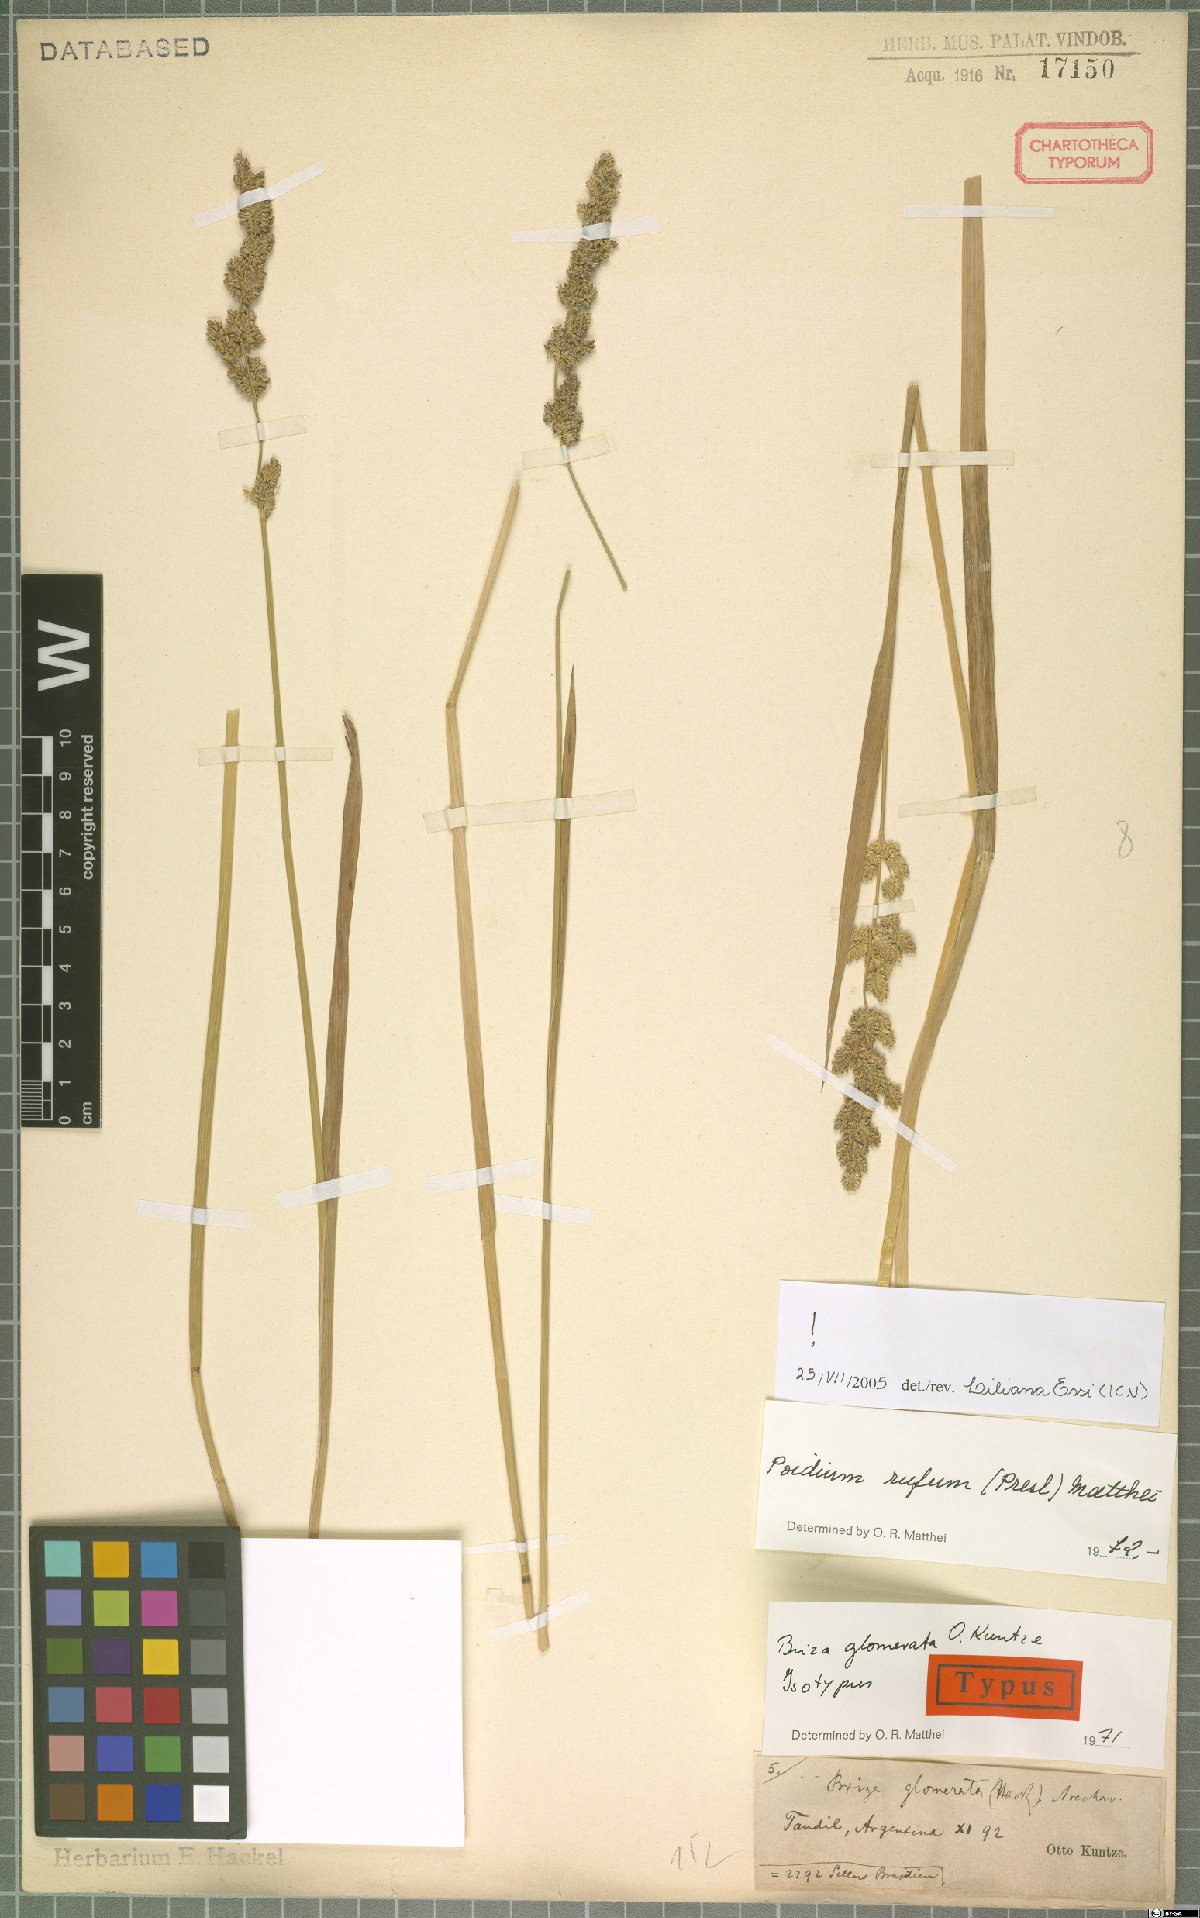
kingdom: Plantae
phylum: Tracheophyta
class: Liliopsida
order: Poales
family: Poaceae
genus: Lombardochloa
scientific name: Lombardochloa rufa
